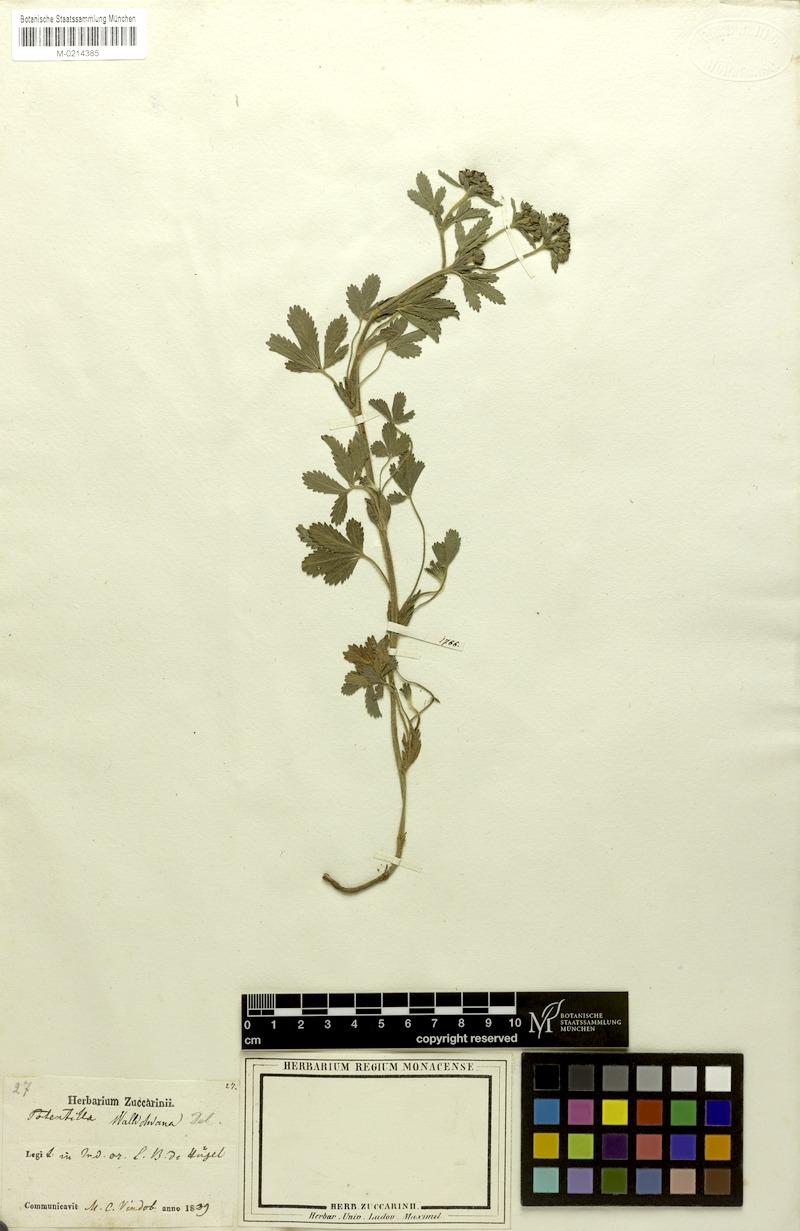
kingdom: Plantae
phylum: Tracheophyta
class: Magnoliopsida
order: Rosales
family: Rosaceae
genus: Potentilla
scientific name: Potentilla sundaica
